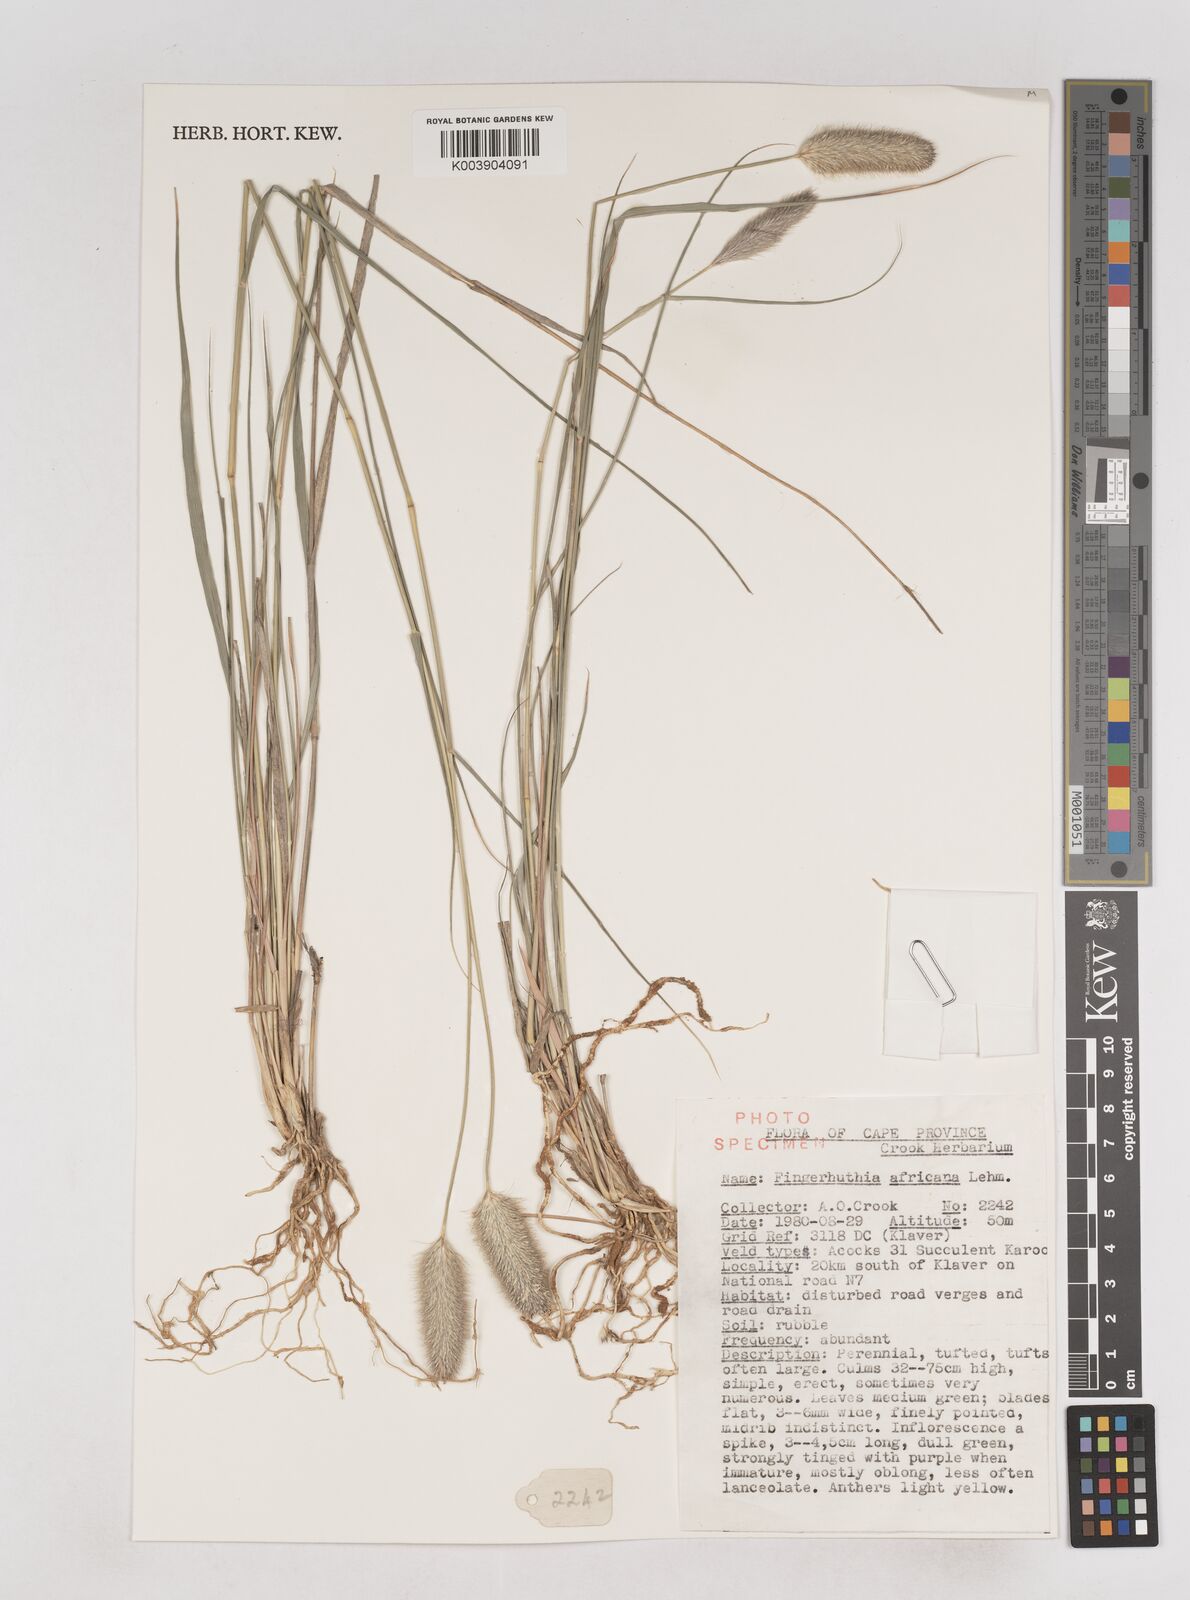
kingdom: Plantae
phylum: Tracheophyta
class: Liliopsida
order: Poales
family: Poaceae
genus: Fingerhuthia
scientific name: Fingerhuthia africana
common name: Zulu fescue
